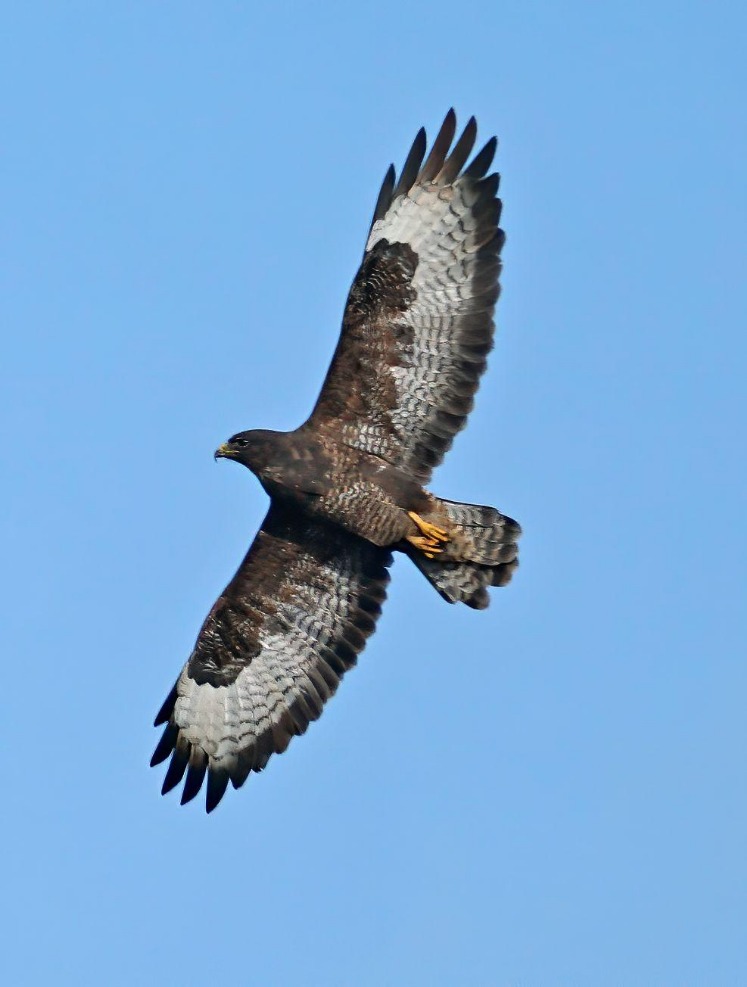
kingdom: Animalia
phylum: Chordata
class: Aves
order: Accipitriformes
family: Accipitridae
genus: Buteo
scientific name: Buteo buteo
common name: Musvåge
